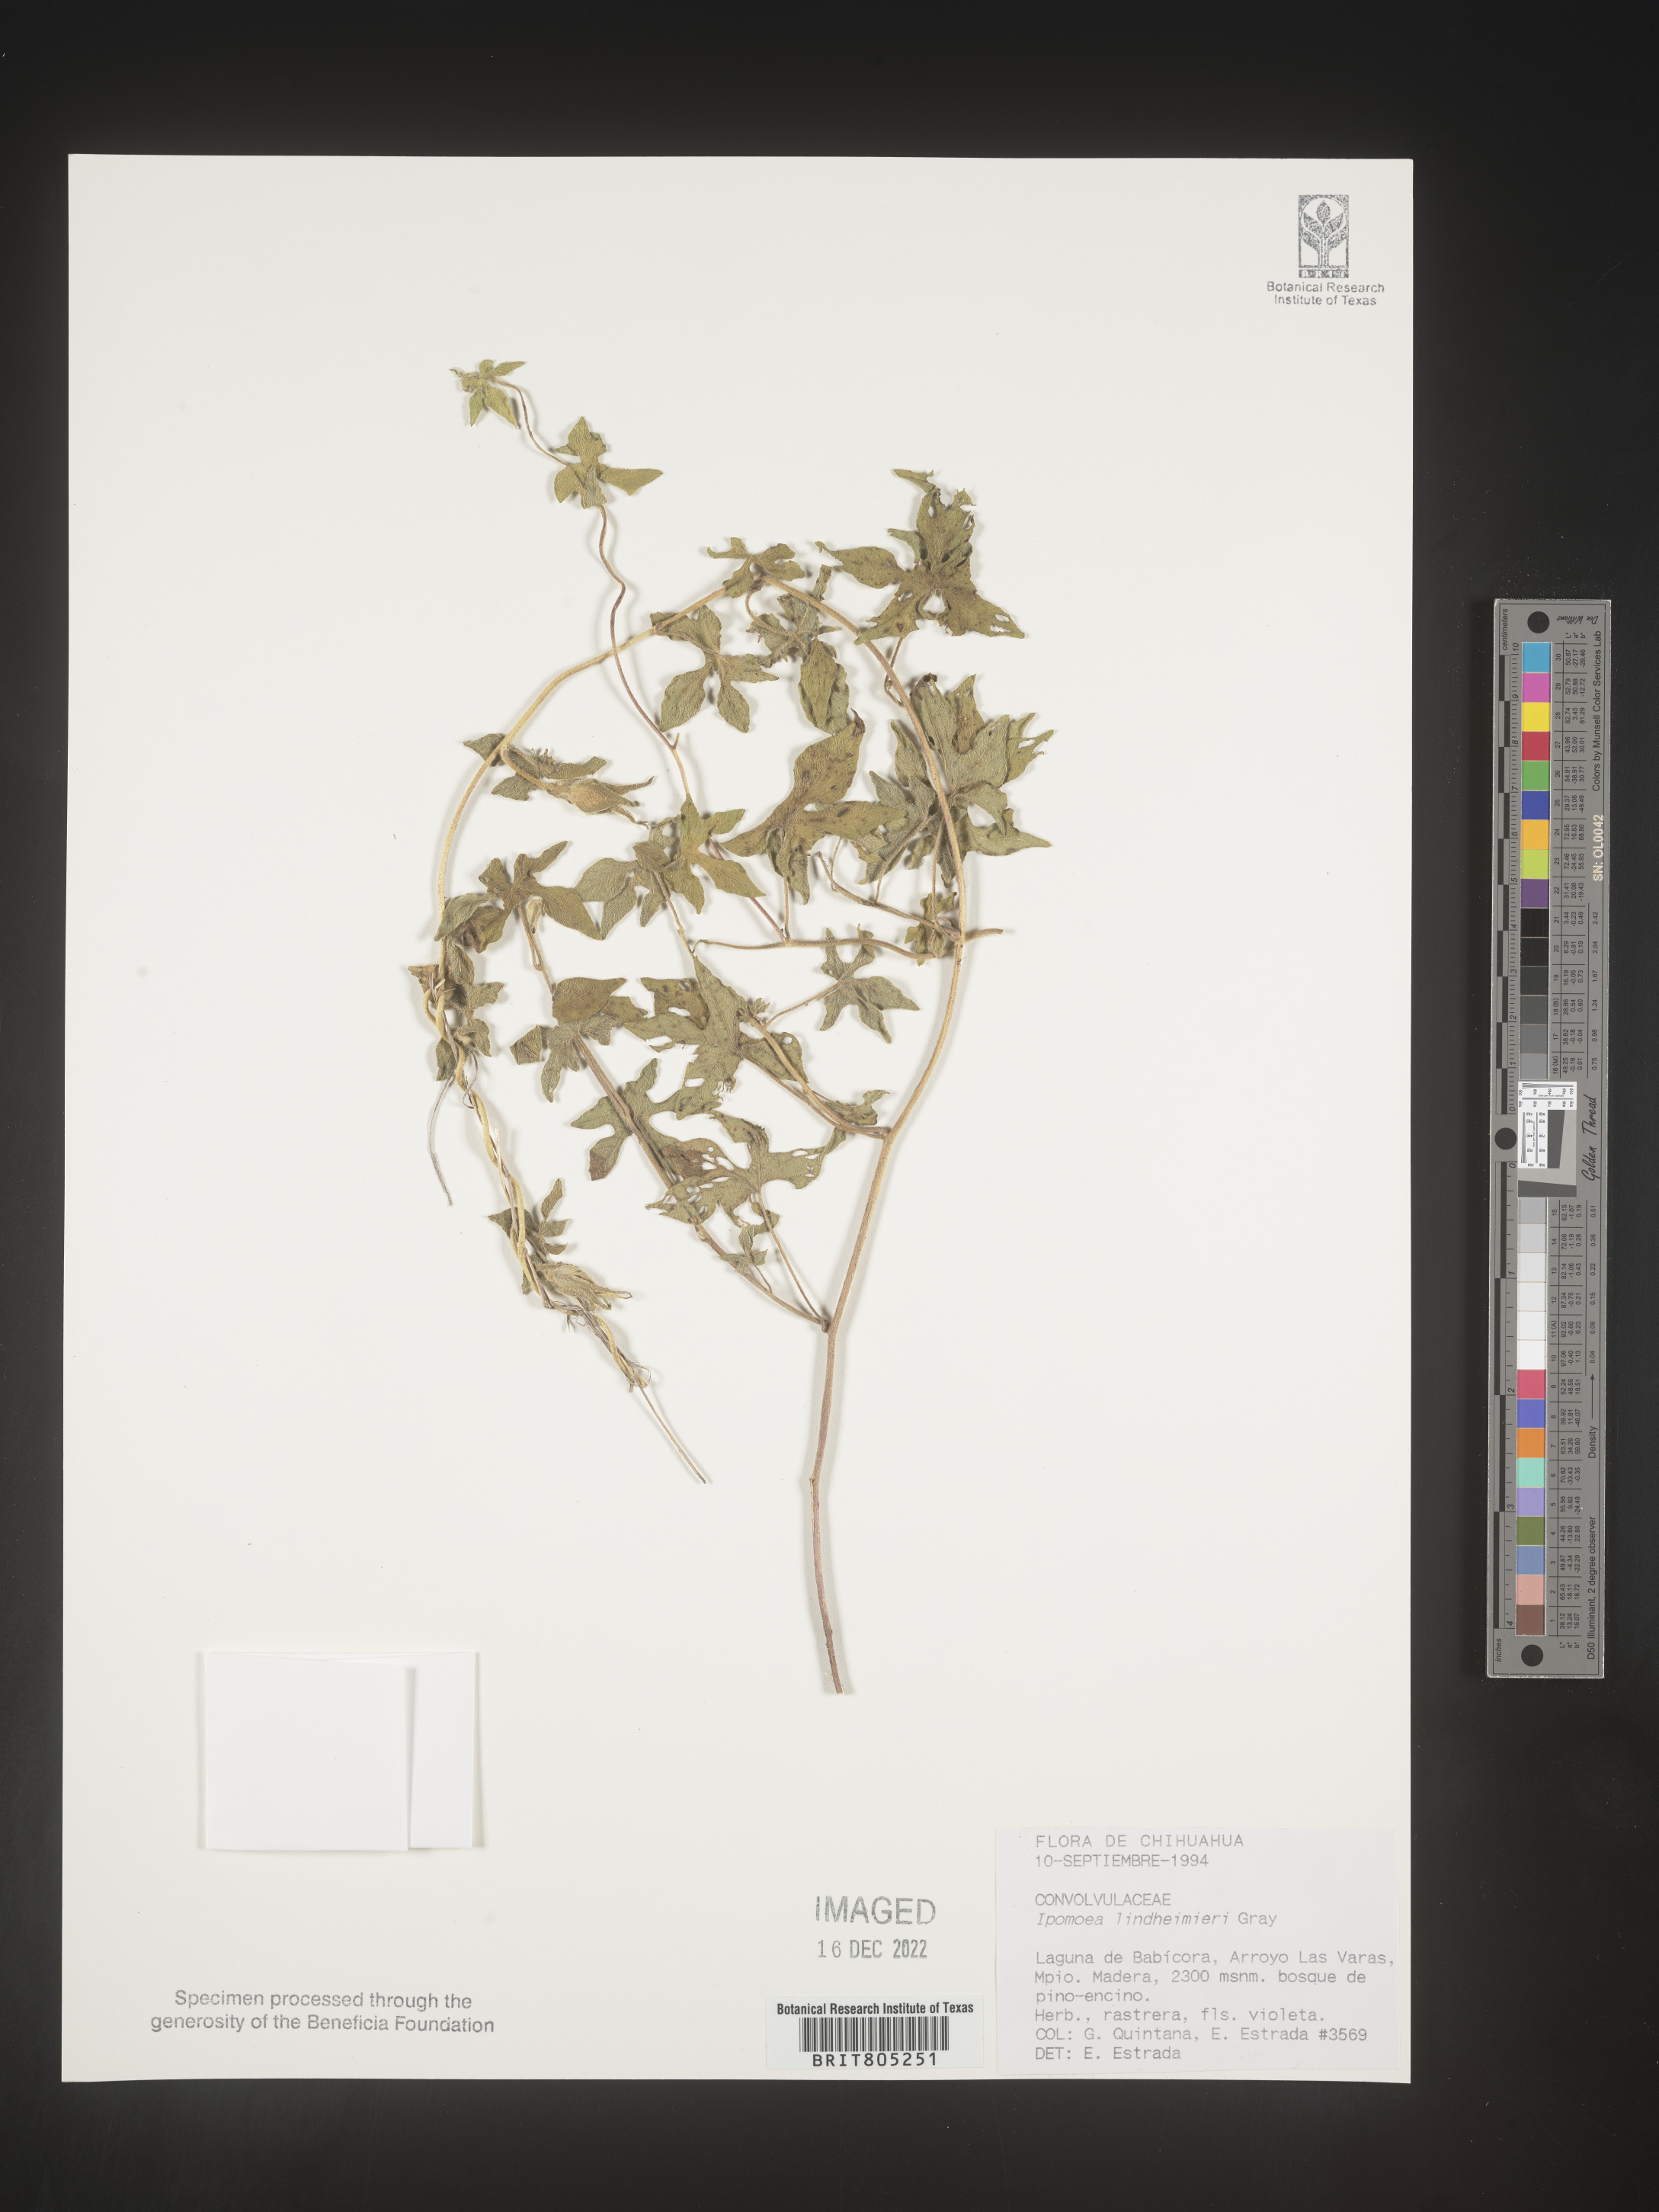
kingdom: Plantae
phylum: Tracheophyta
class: Magnoliopsida
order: Solanales
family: Convolvulaceae
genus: Ipomoea
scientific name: Ipomoea
